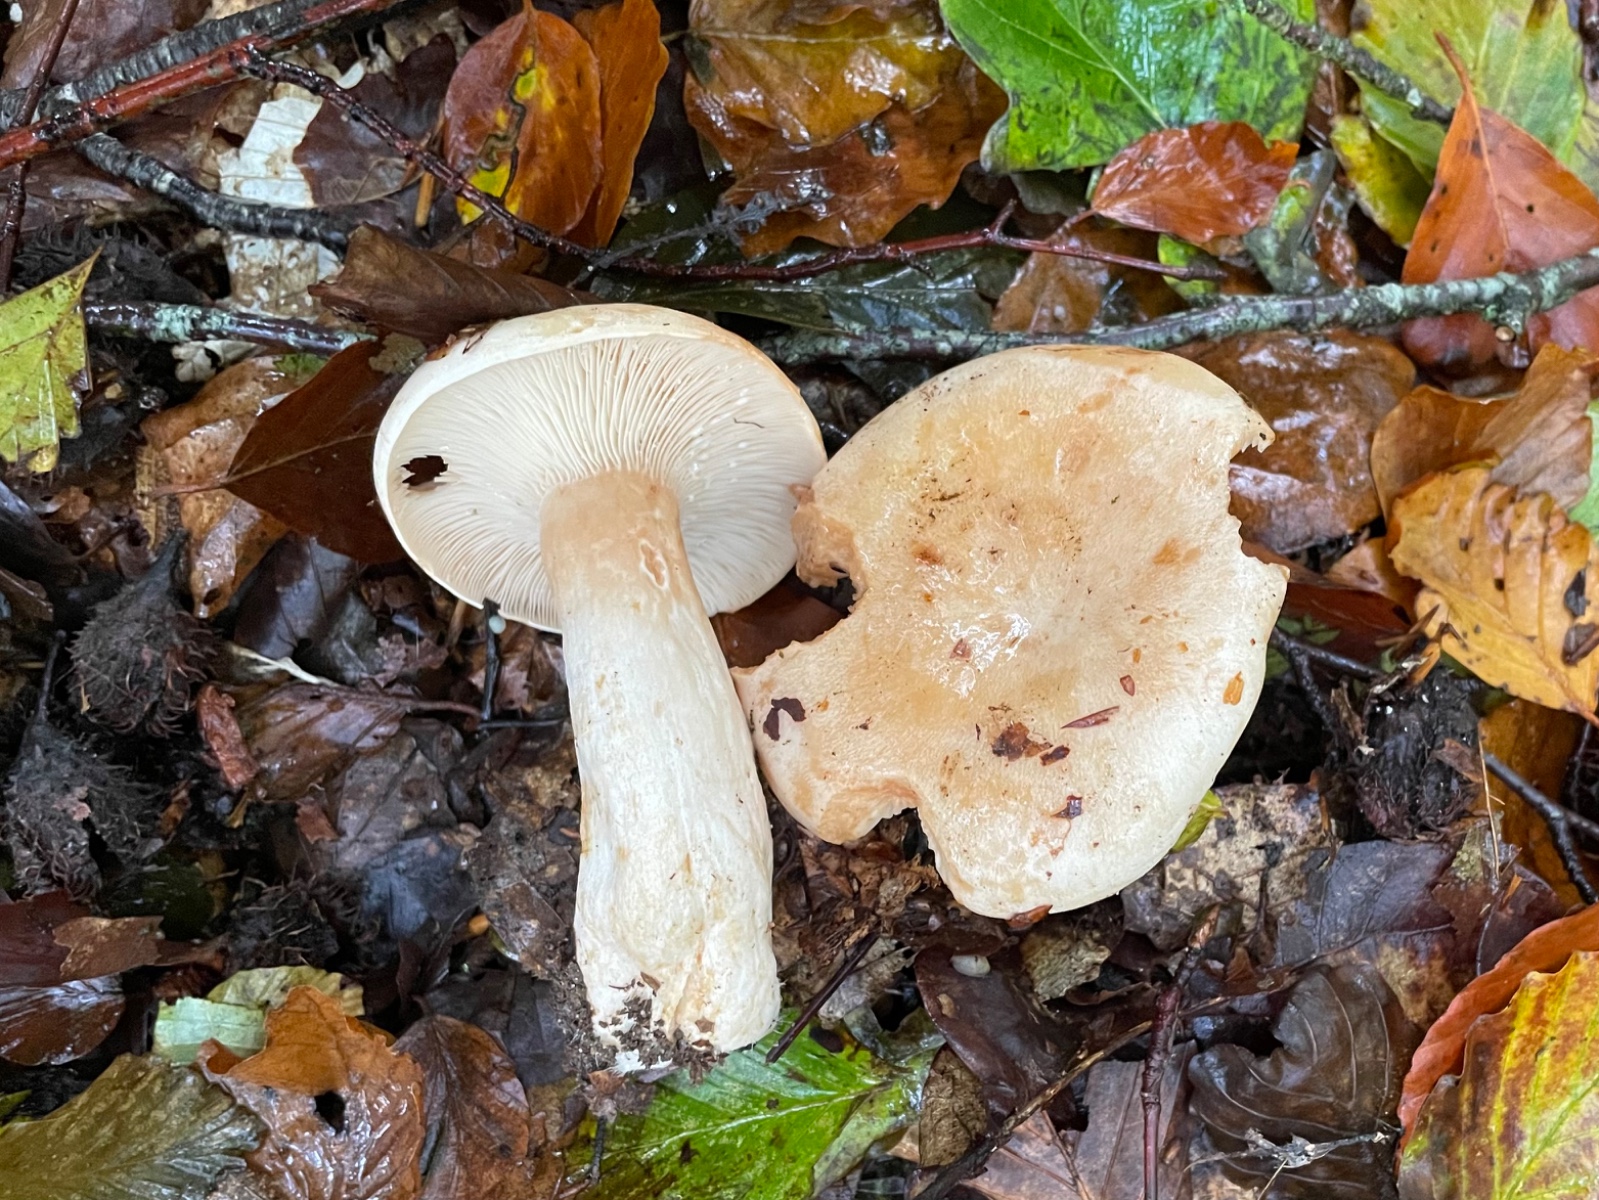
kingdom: Fungi
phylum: Basidiomycota
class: Agaricomycetes
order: Russulales
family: Russulaceae
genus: Lactarius
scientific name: Lactarius pallidus
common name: bleg mælkehat
